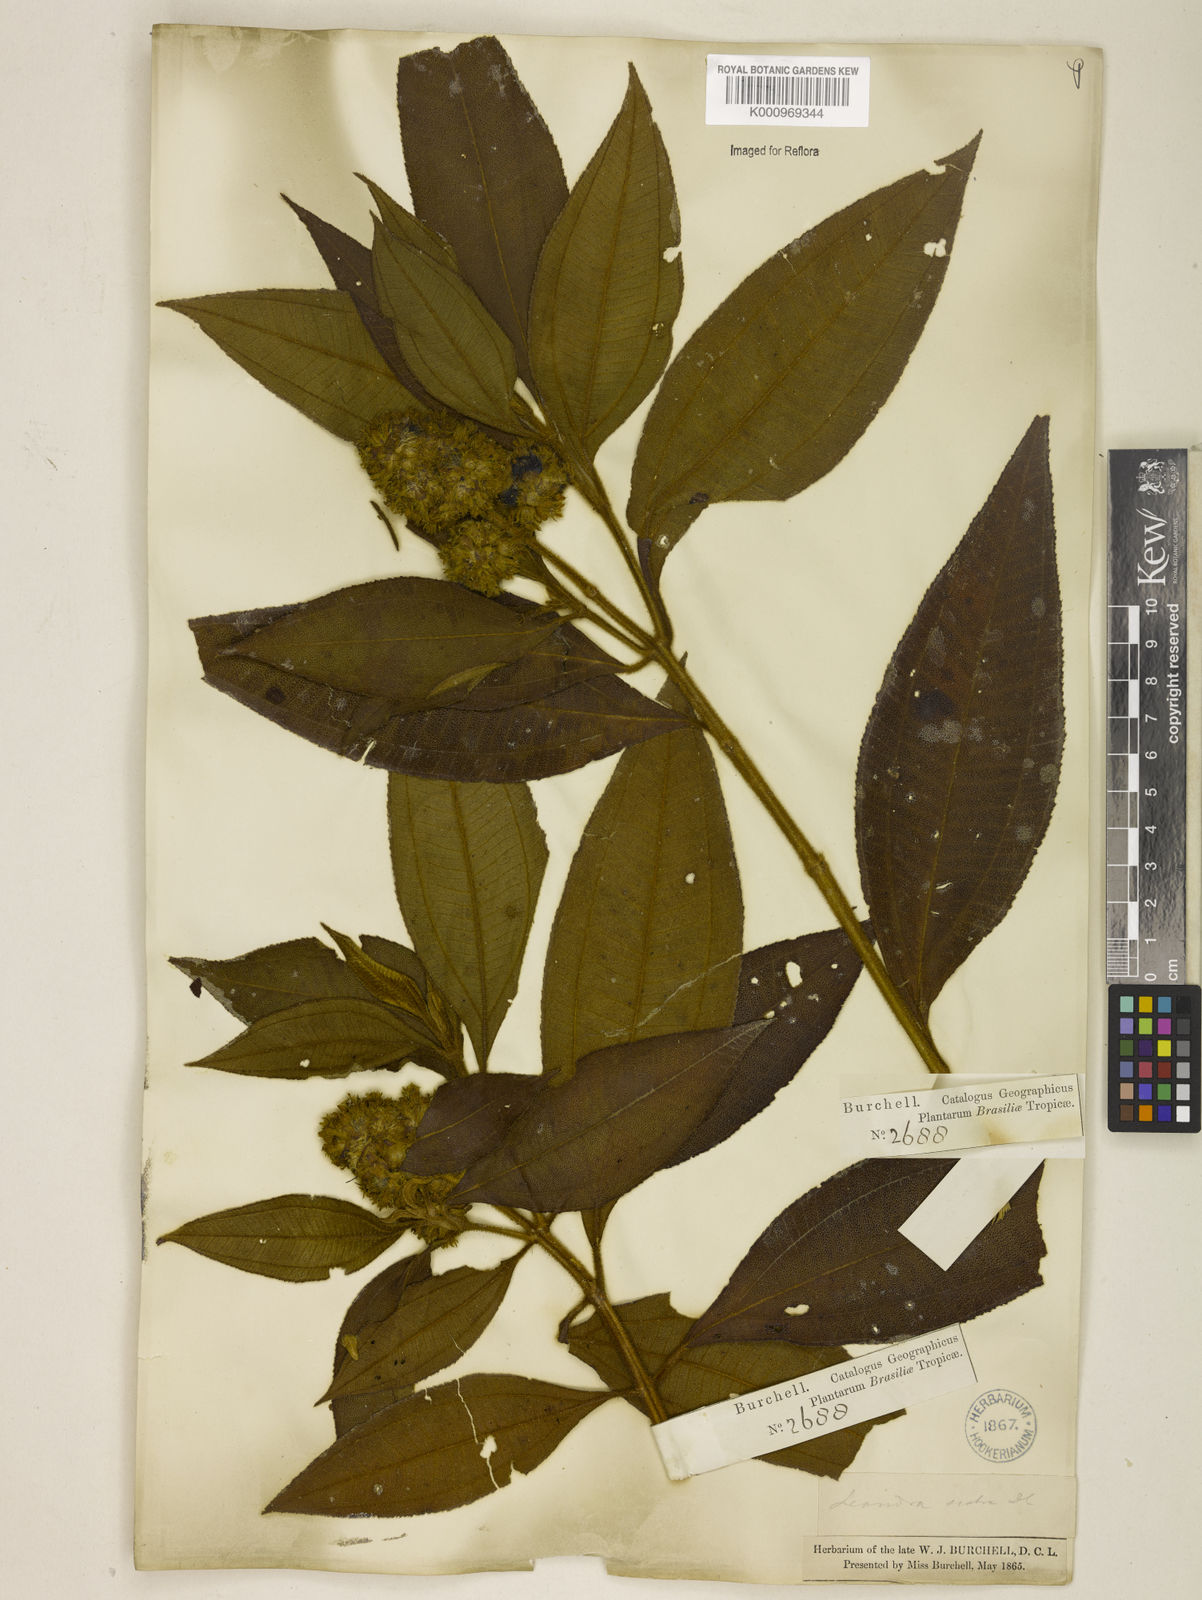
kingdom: Plantae
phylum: Tracheophyta
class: Magnoliopsida
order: Myrtales
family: Melastomataceae
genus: Miconia
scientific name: Miconia melastomoides
